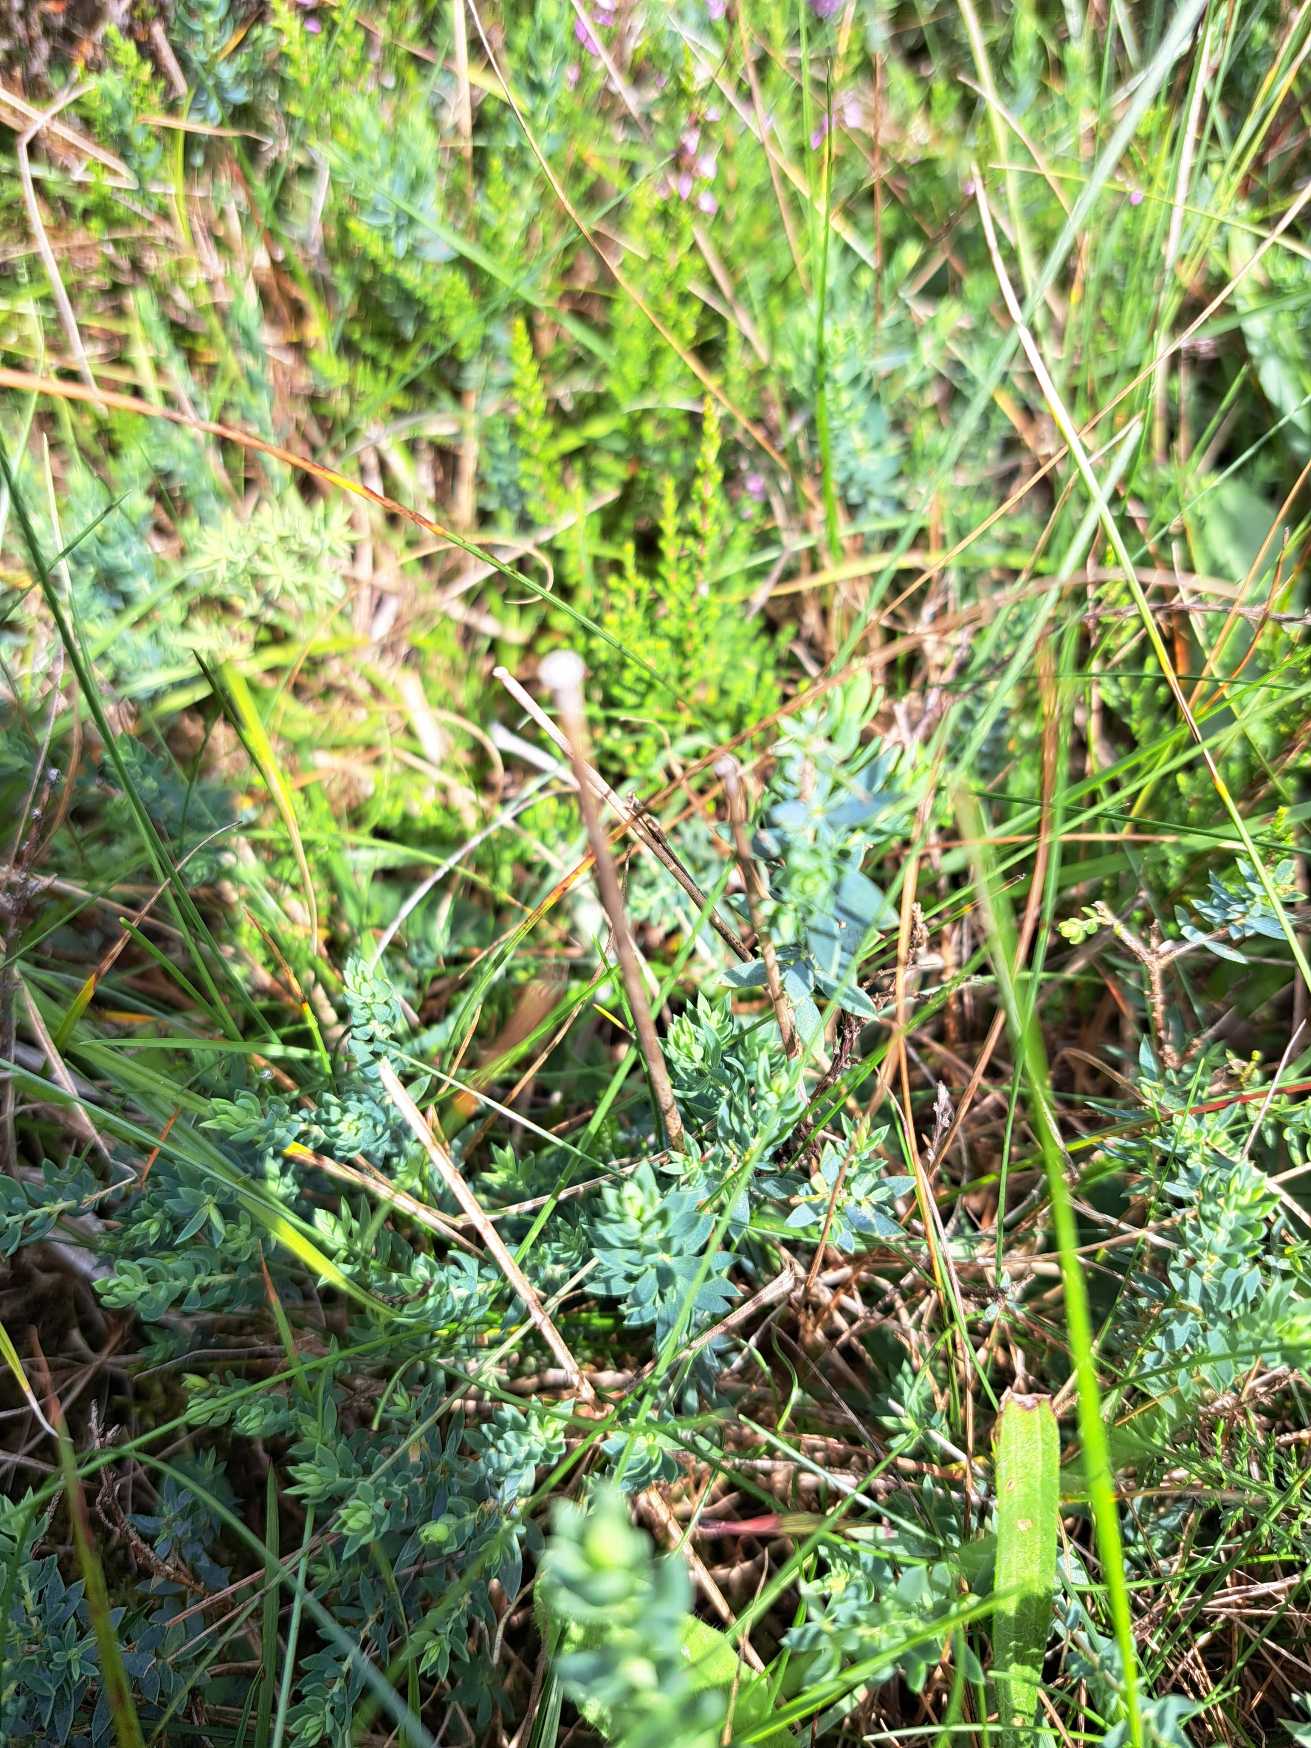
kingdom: Plantae
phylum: Tracheophyta
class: Magnoliopsida
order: Fabales
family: Fabaceae
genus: Genista
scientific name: Genista anglica
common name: Engelsk visse
